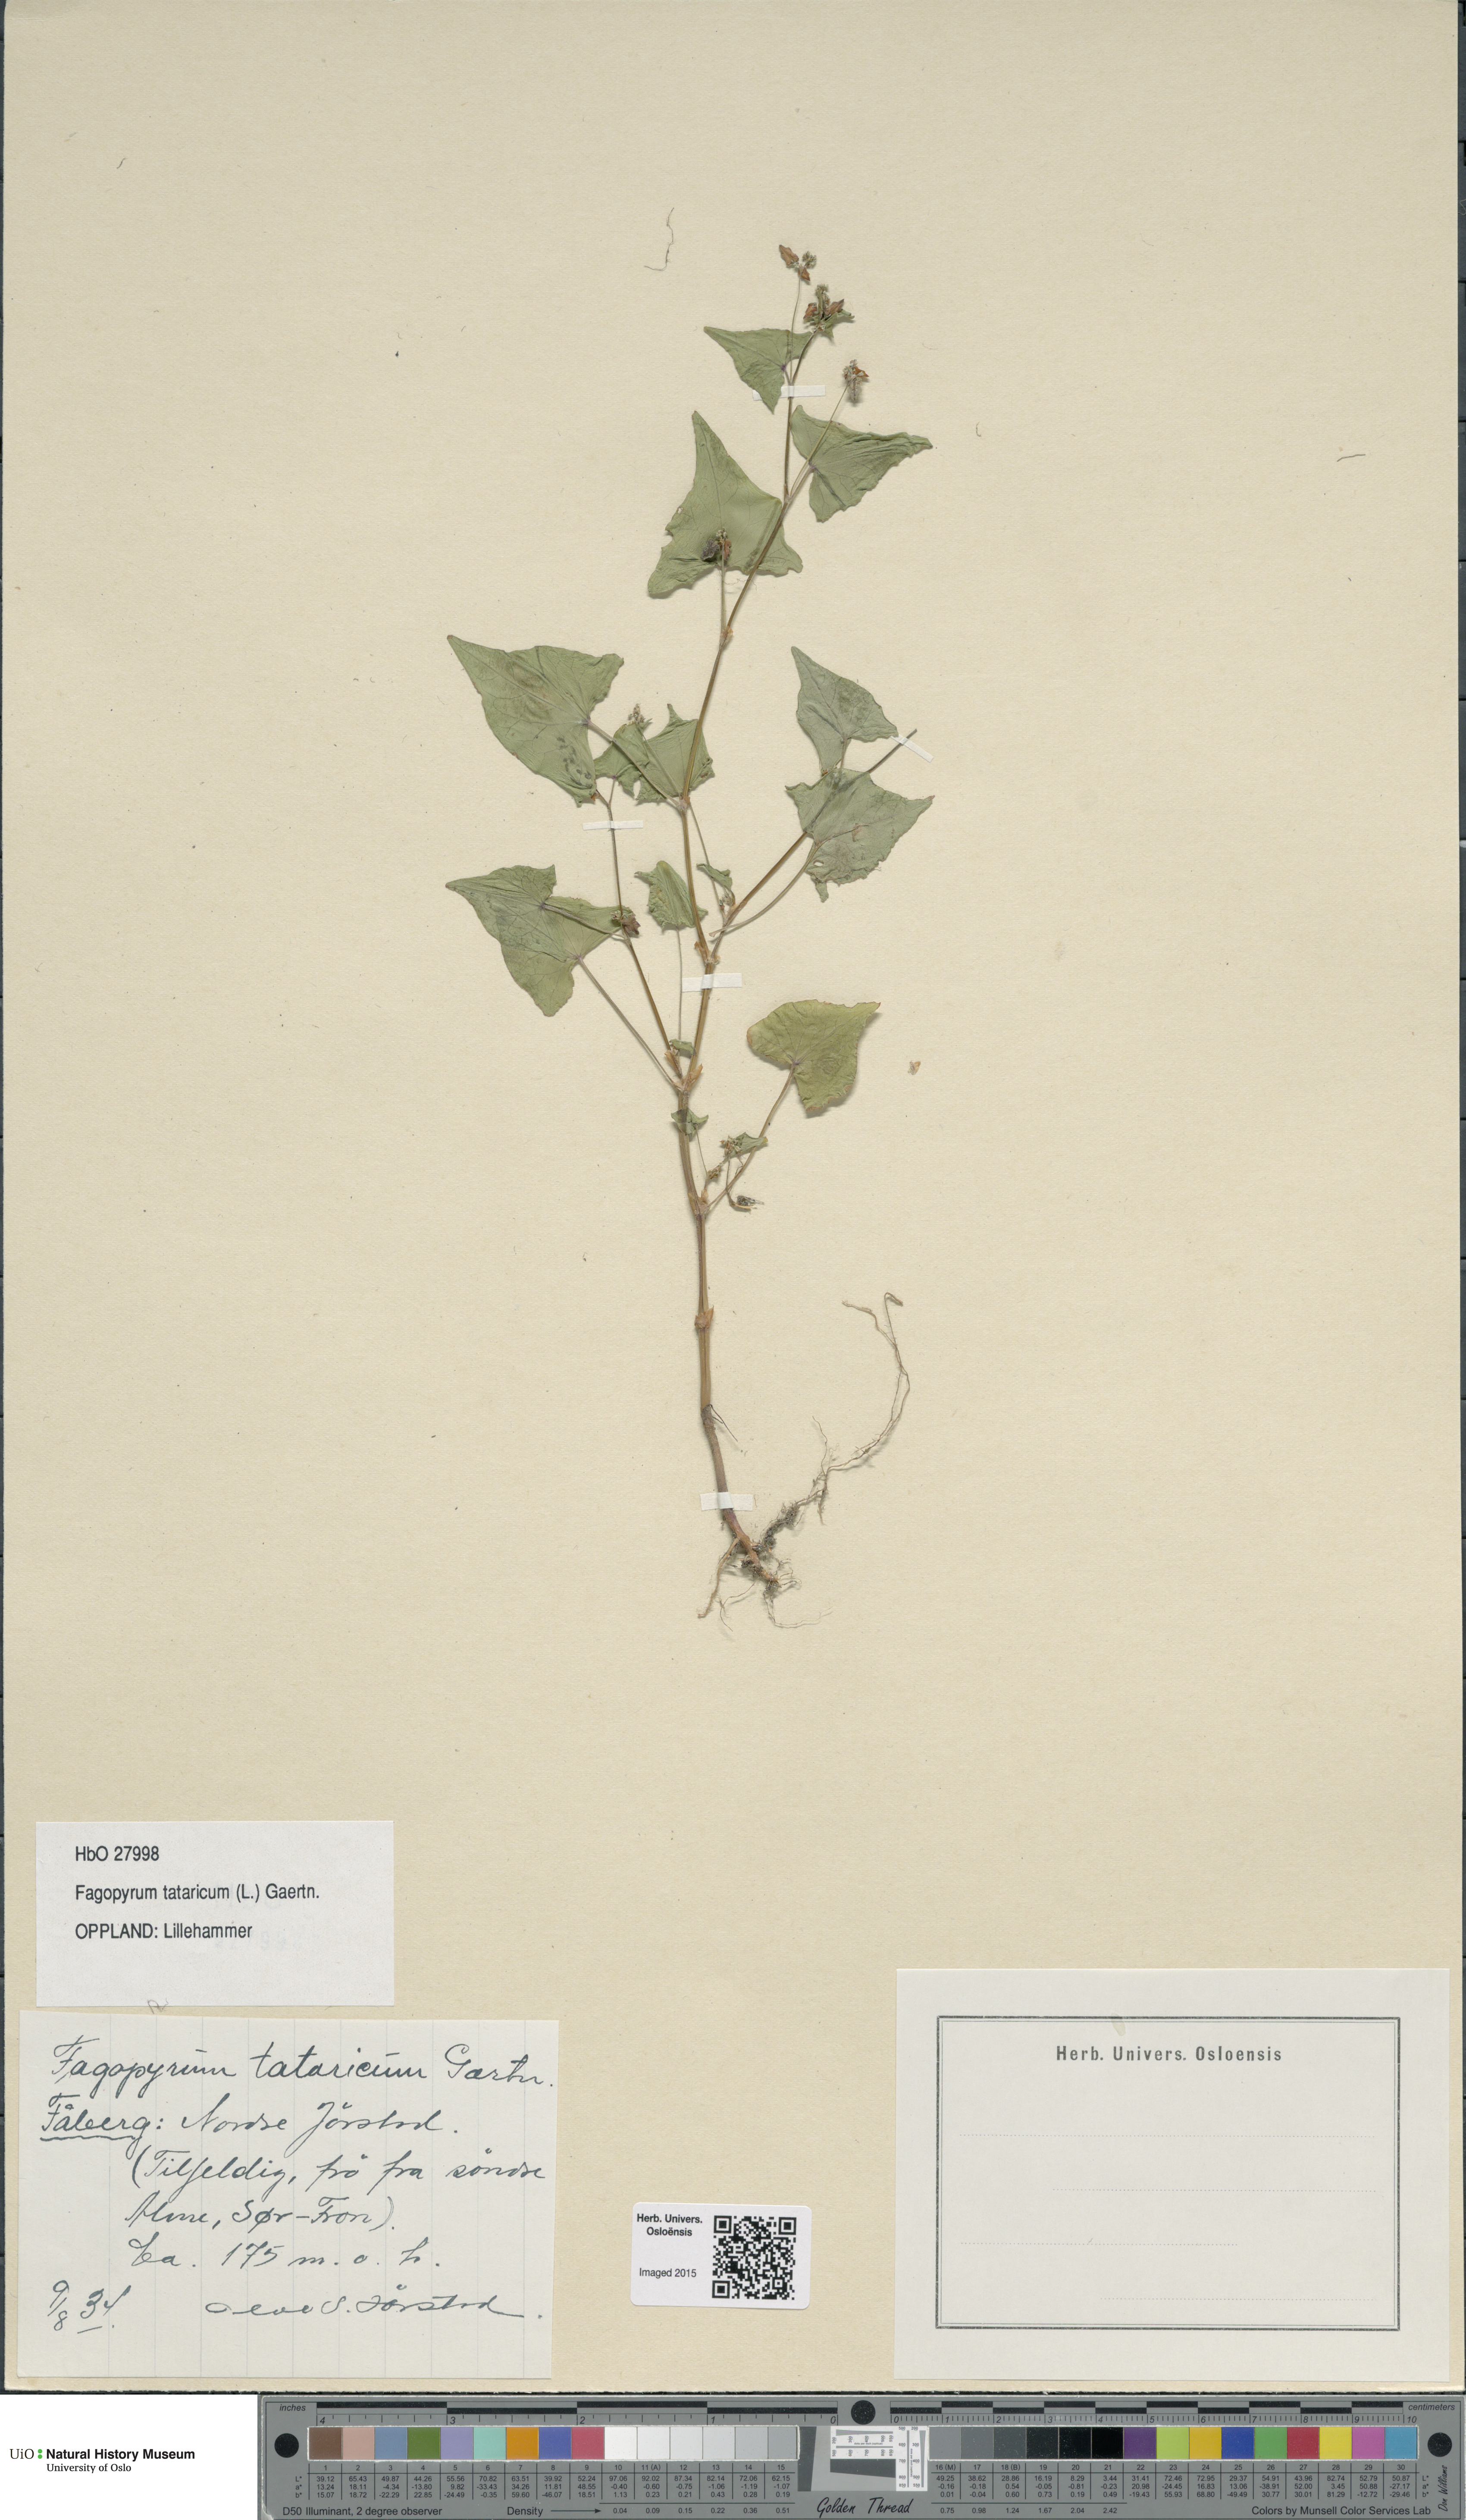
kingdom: Plantae
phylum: Tracheophyta
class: Magnoliopsida
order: Caryophyllales
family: Polygonaceae
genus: Fagopyrum
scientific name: Fagopyrum tataricum
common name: Green buckwheat
